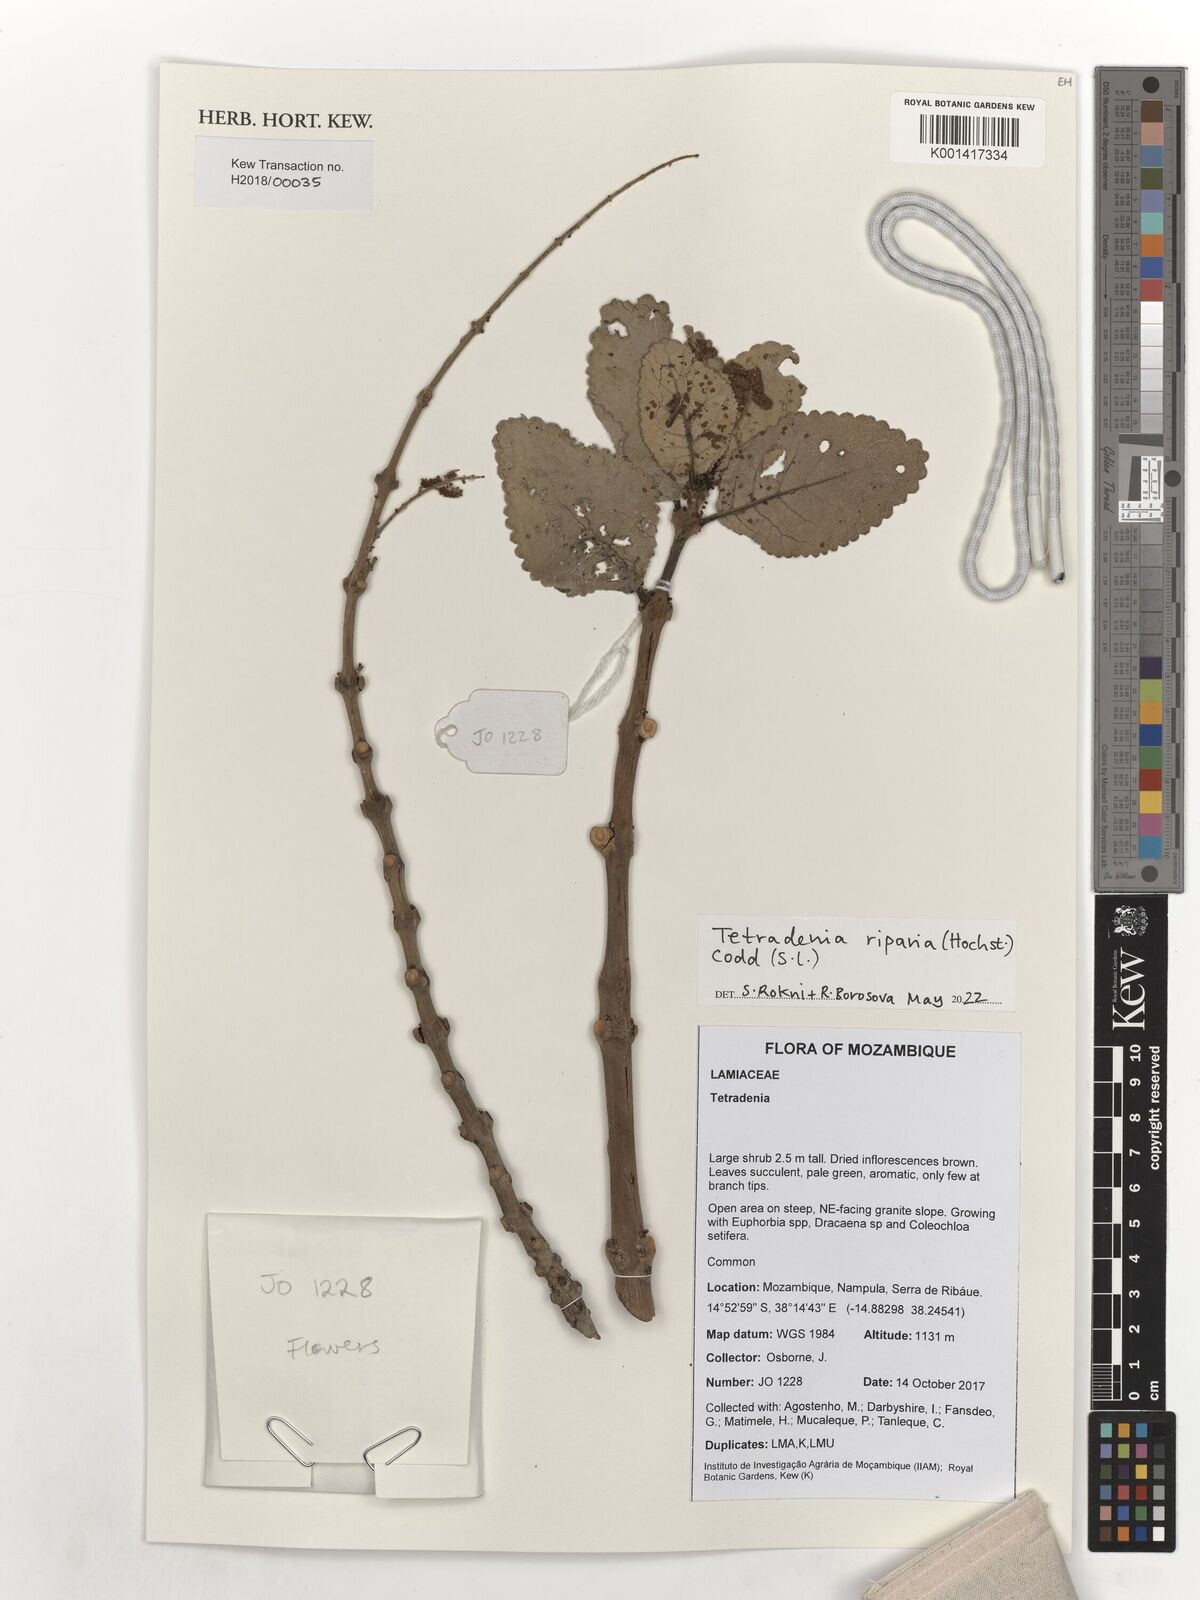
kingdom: Plantae
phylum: Tracheophyta
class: Magnoliopsida
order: Lamiales
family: Lamiaceae
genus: Tetradenia
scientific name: Tetradenia riparia
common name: Gingerbush
